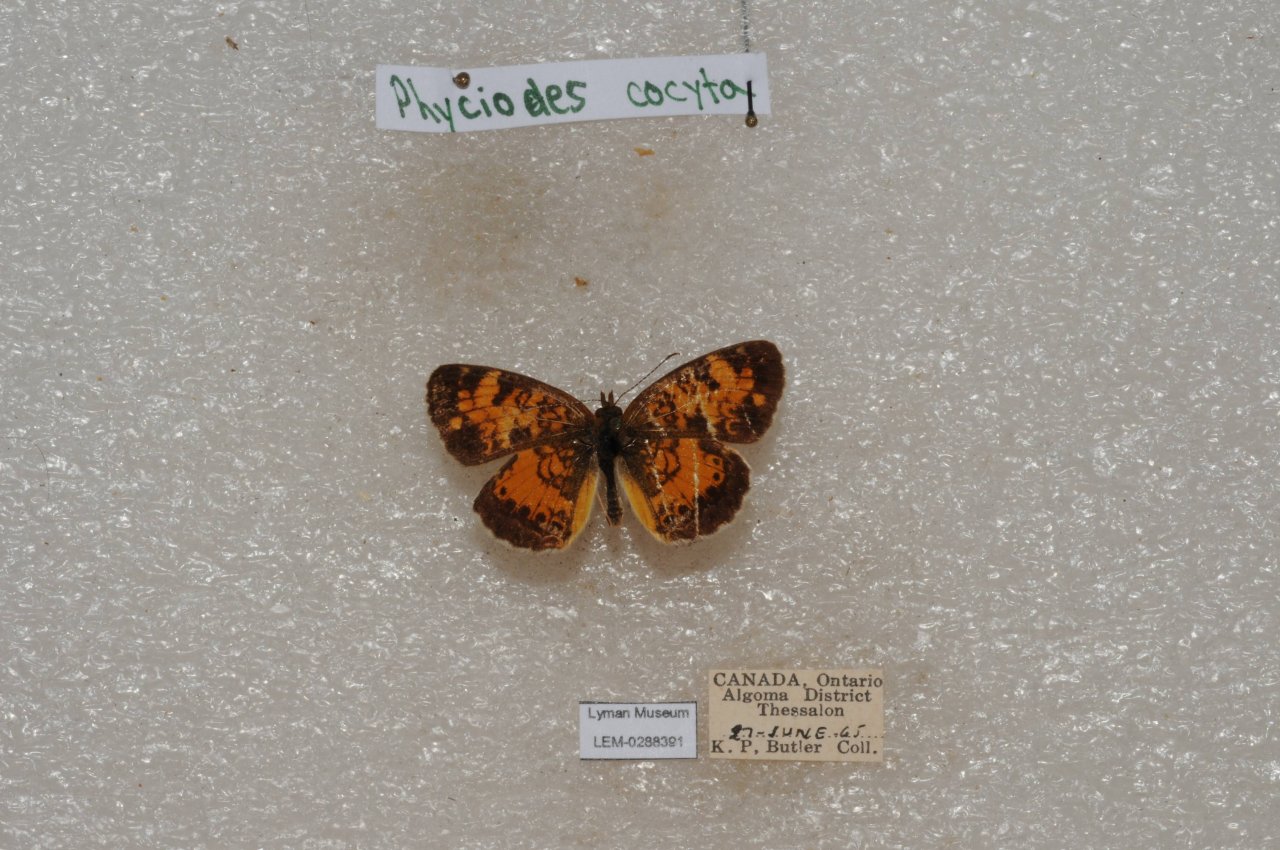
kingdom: Animalia
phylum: Arthropoda
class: Insecta
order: Lepidoptera
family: Nymphalidae
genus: Phyciodes
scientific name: Phyciodes tharos
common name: Northern Crescent
